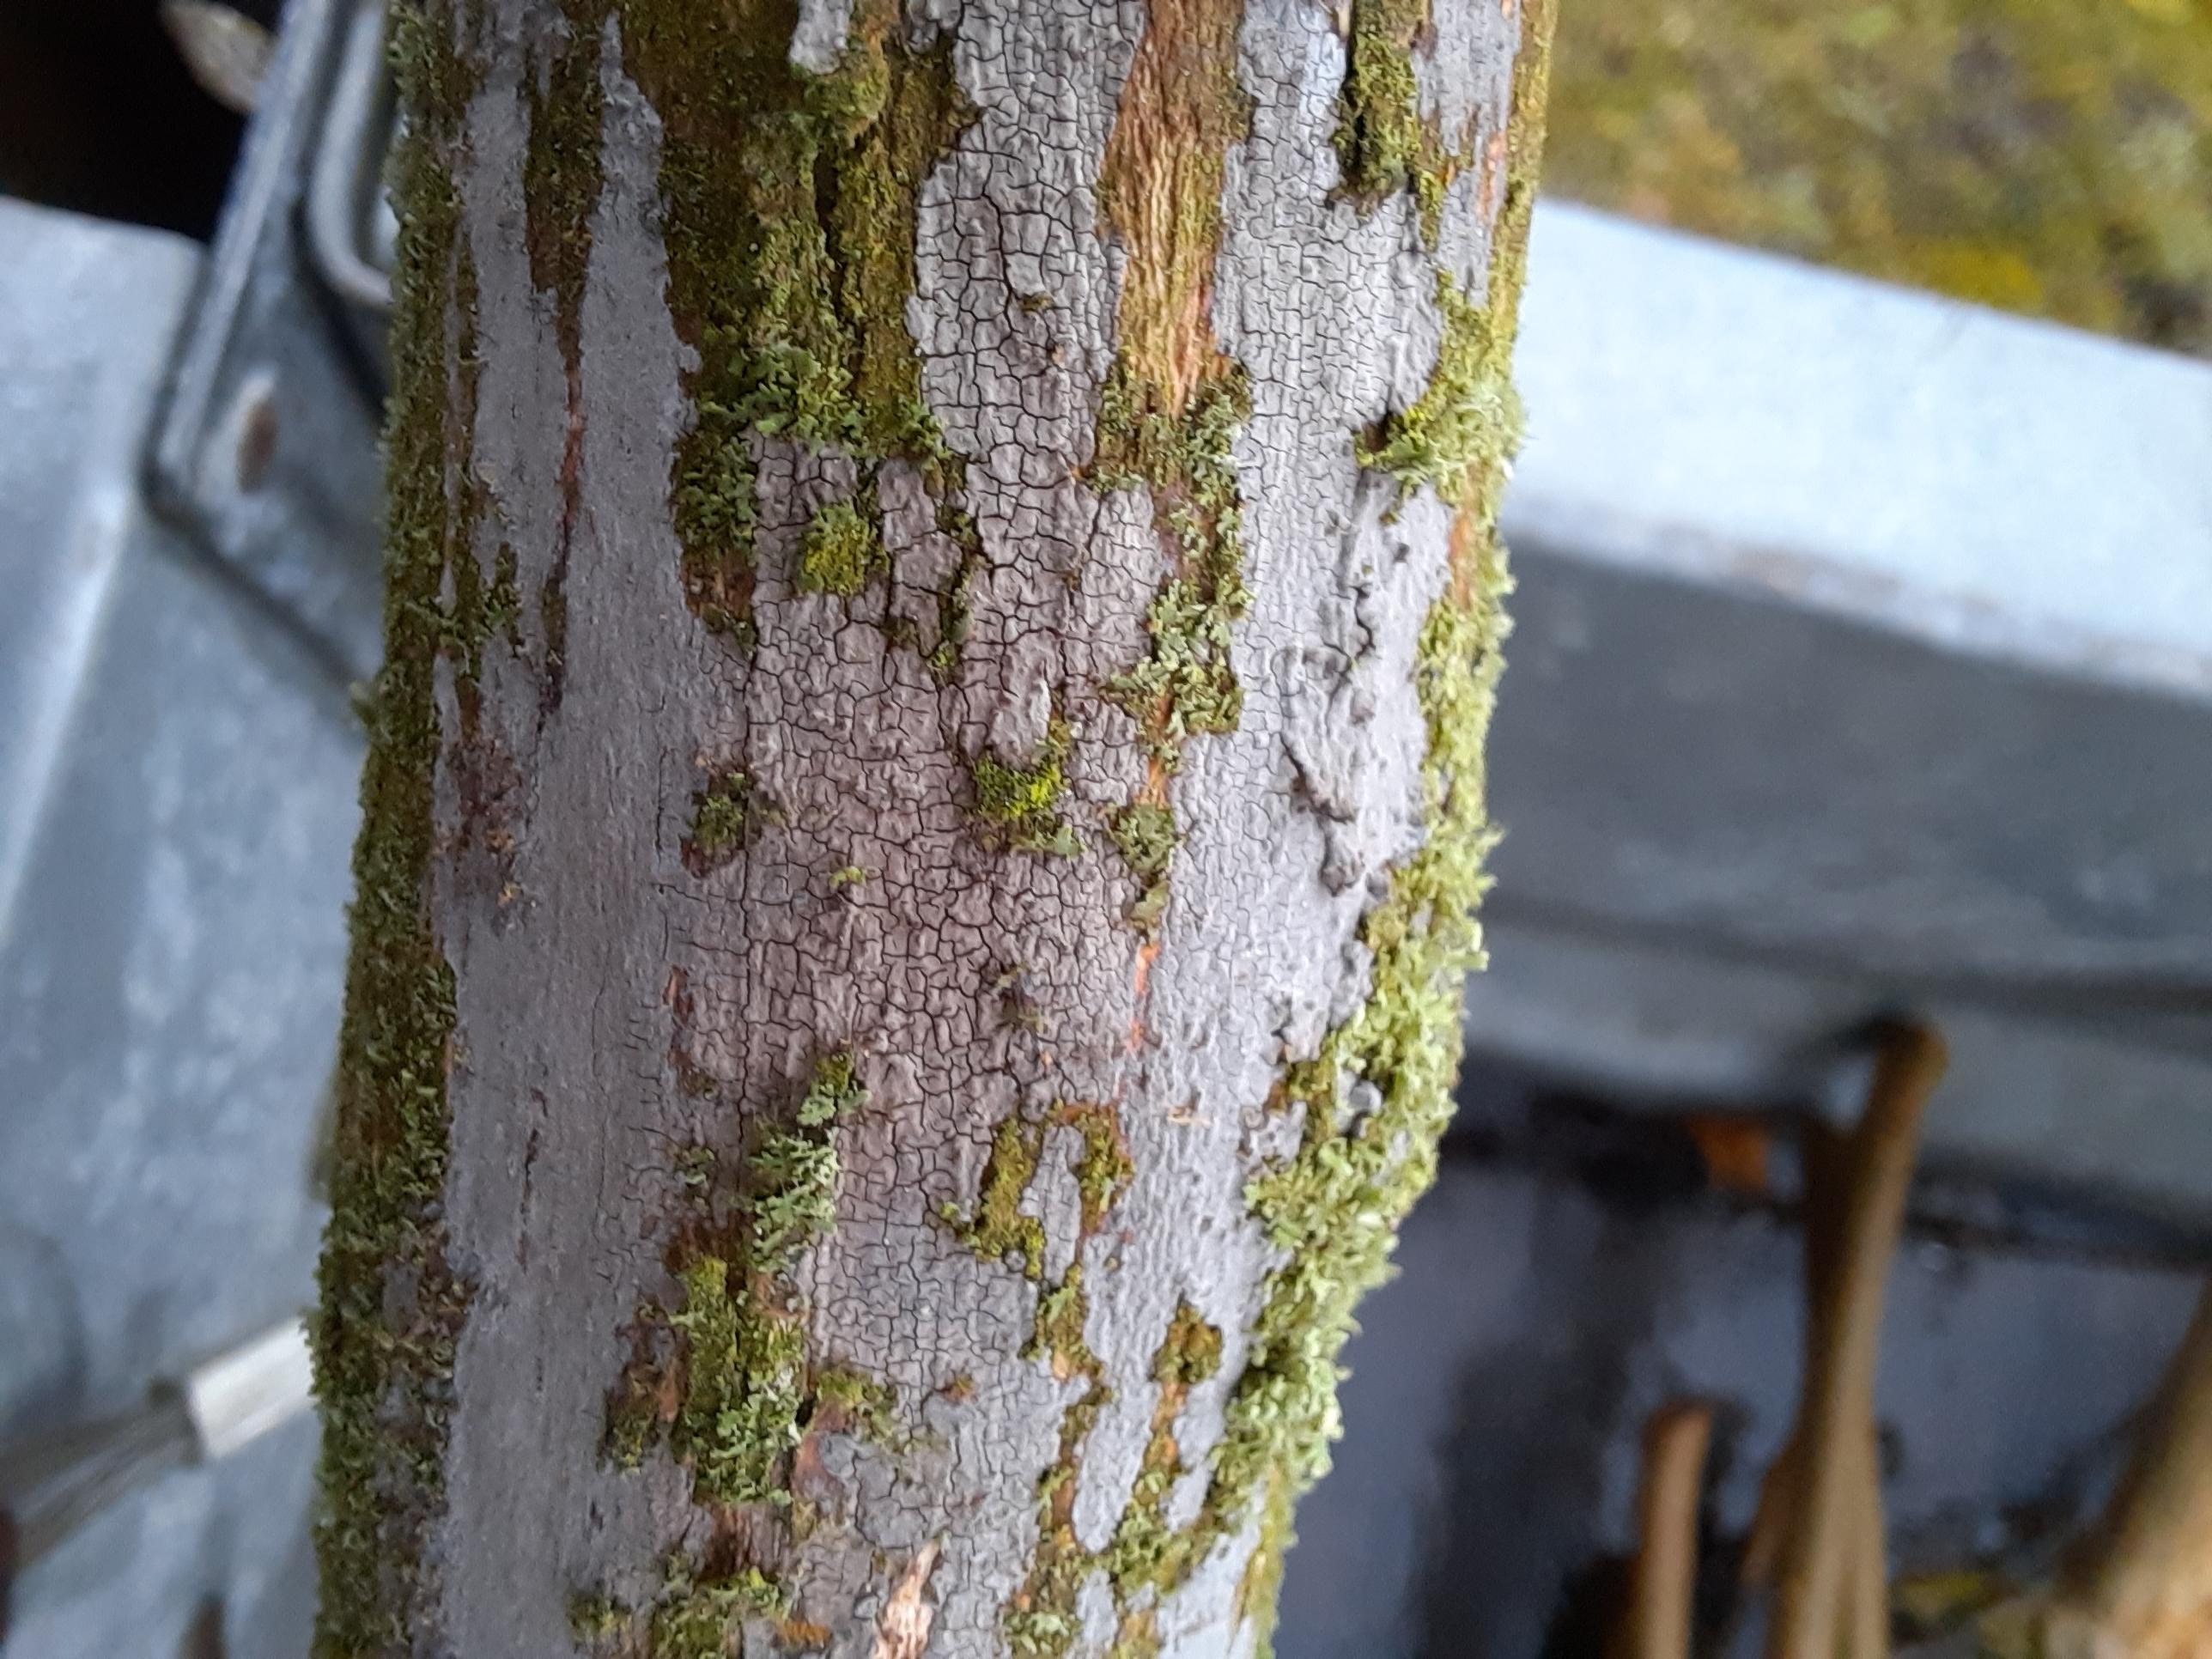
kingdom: Fungi
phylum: Basidiomycota
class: Agaricomycetes
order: Russulales
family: Peniophoraceae
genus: Peniophora
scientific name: Peniophora
